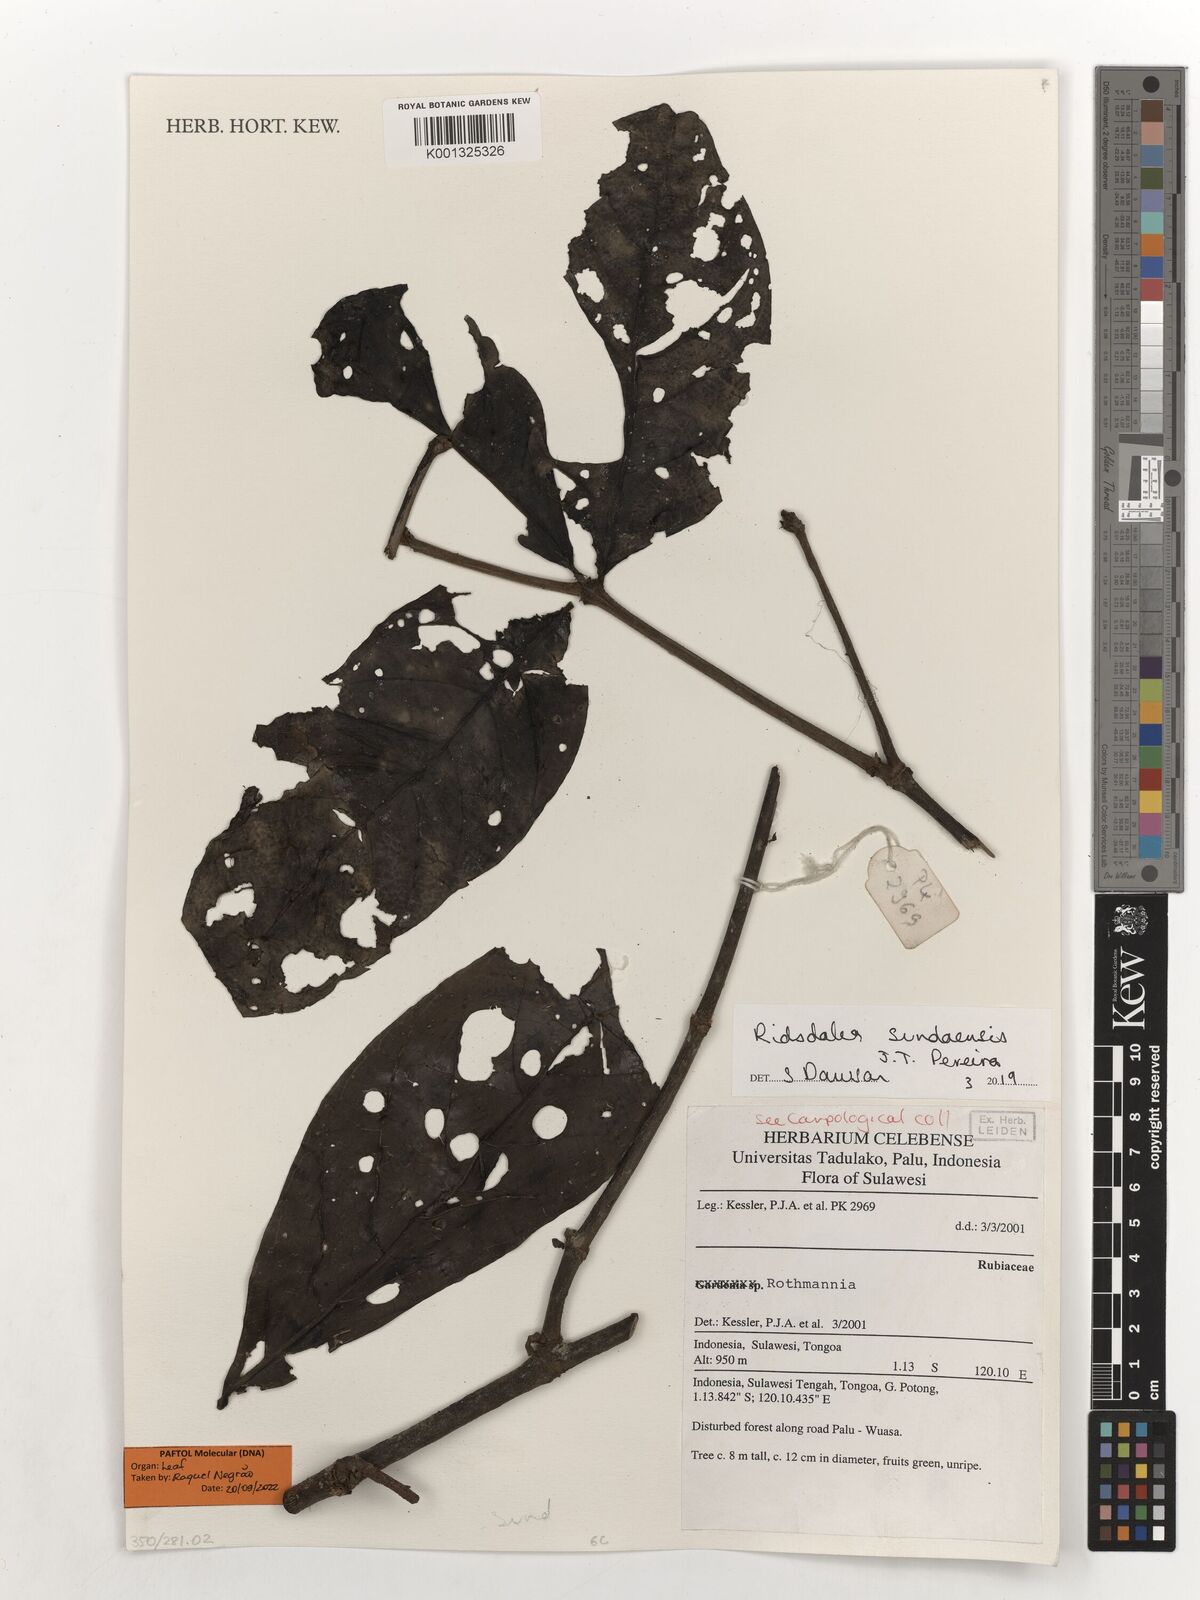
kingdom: Plantae
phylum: Tracheophyta
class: Magnoliopsida
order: Gentianales
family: Rubiaceae
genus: Ridsdalea
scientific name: Ridsdalea sundaensis
